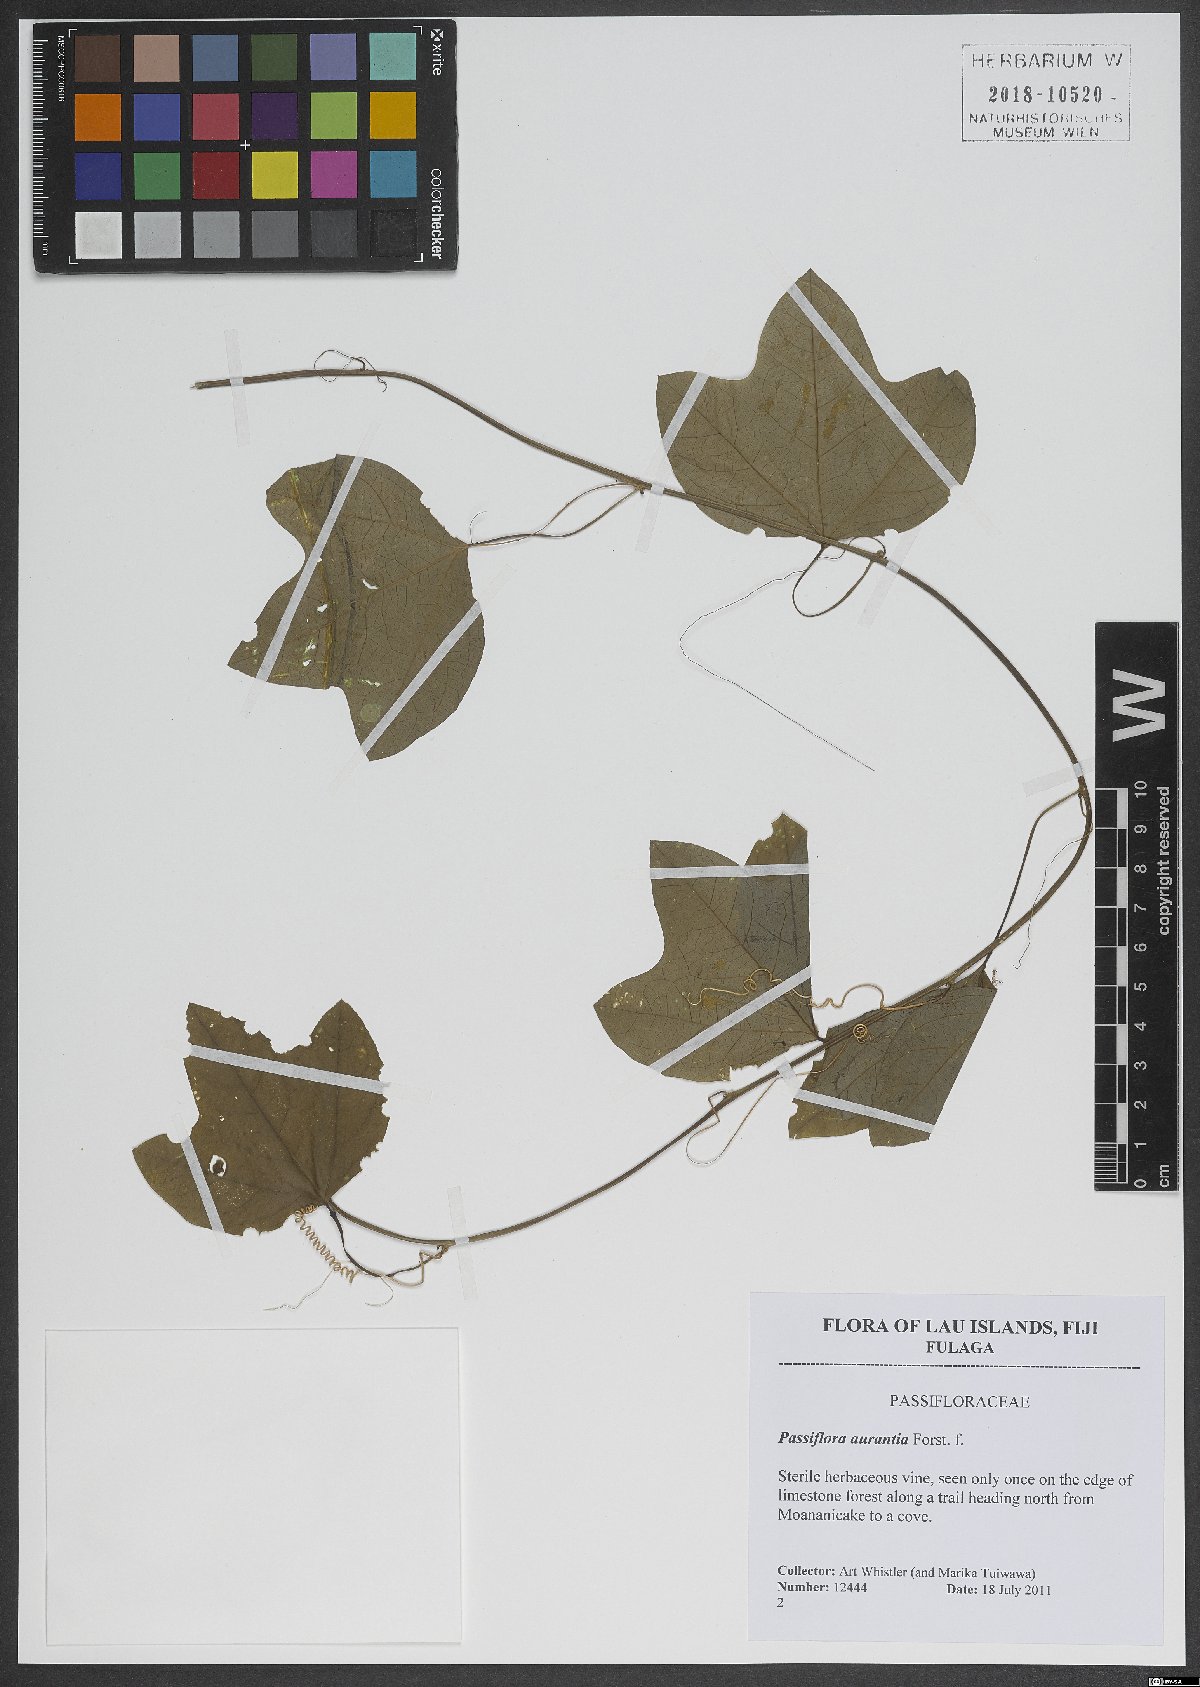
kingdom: Plantae
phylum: Tracheophyta
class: Magnoliopsida
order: Malpighiales
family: Passifloraceae
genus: Passiflora
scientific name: Passiflora aurantia
